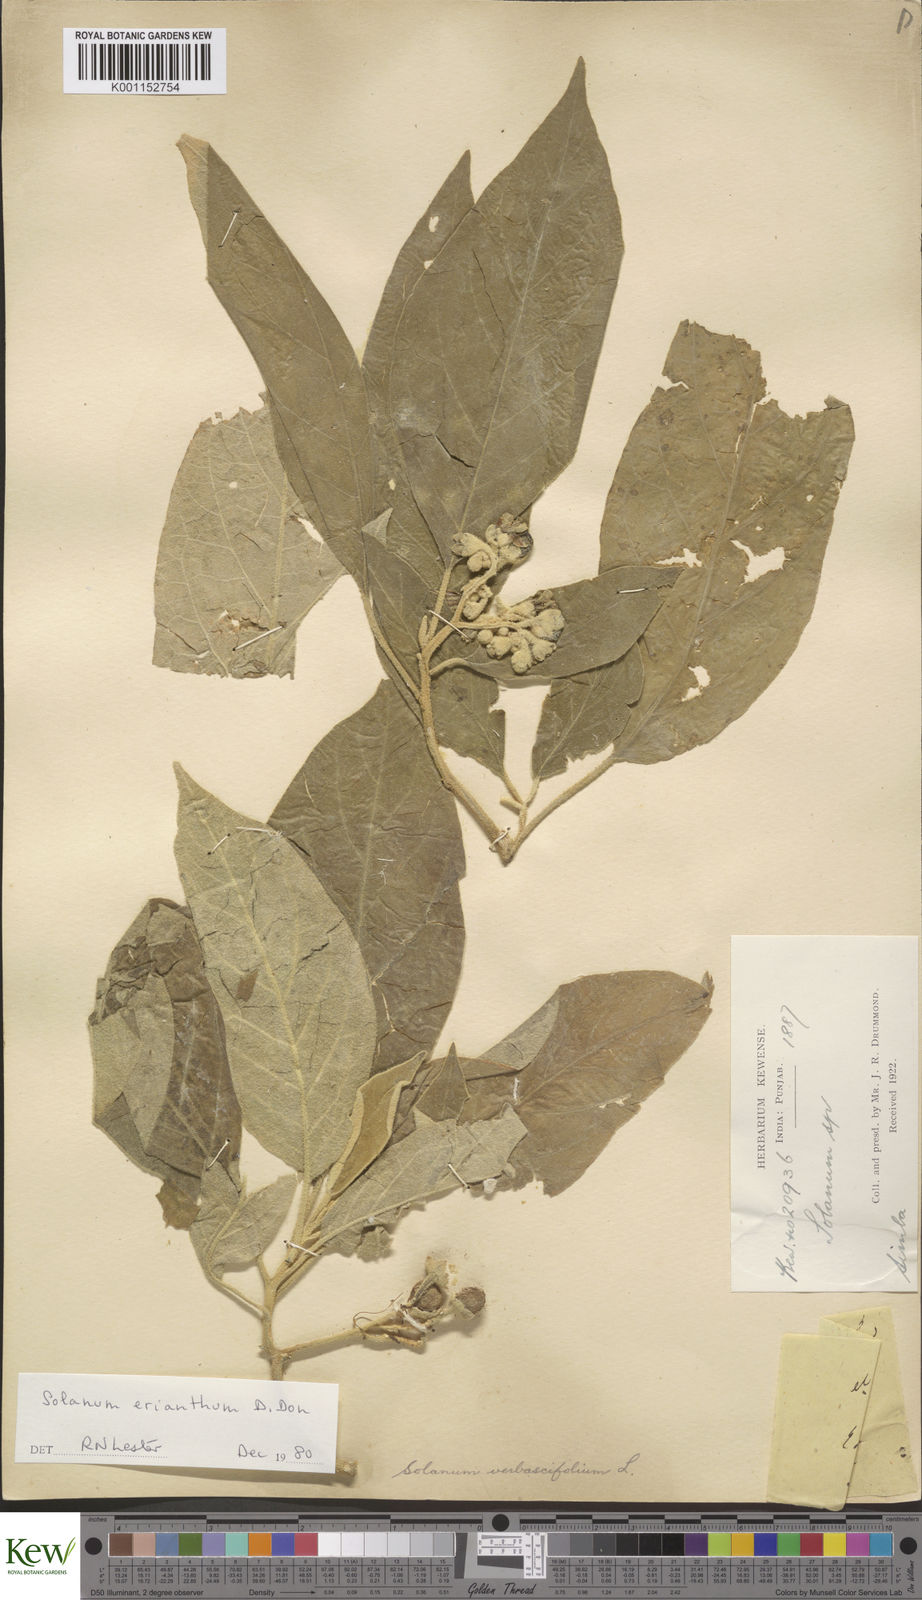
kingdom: Plantae
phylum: Tracheophyta
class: Magnoliopsida
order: Solanales
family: Solanaceae
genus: Solanum
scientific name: Solanum erianthum
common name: Tobacco-tree
